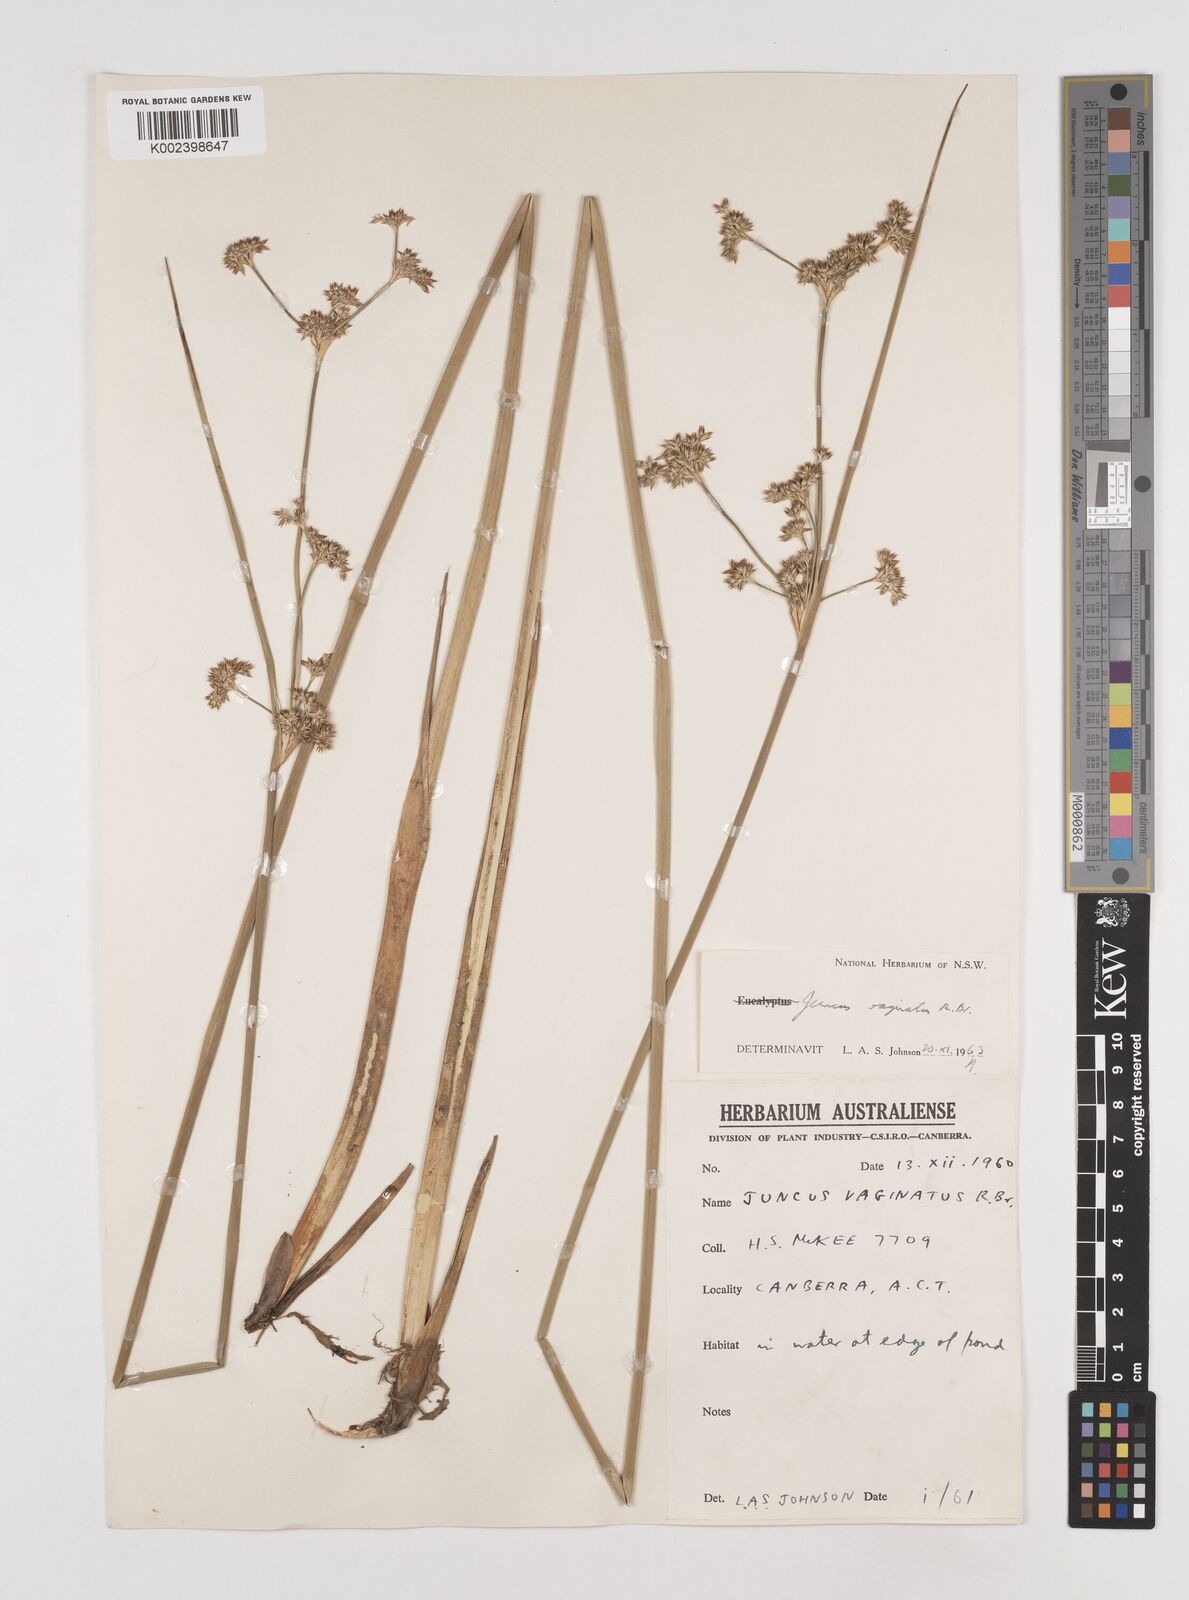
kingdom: Plantae
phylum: Tracheophyta
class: Liliopsida
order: Poales
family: Juncaceae
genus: Juncus
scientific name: Juncus vaginatus
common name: Clustered rush
